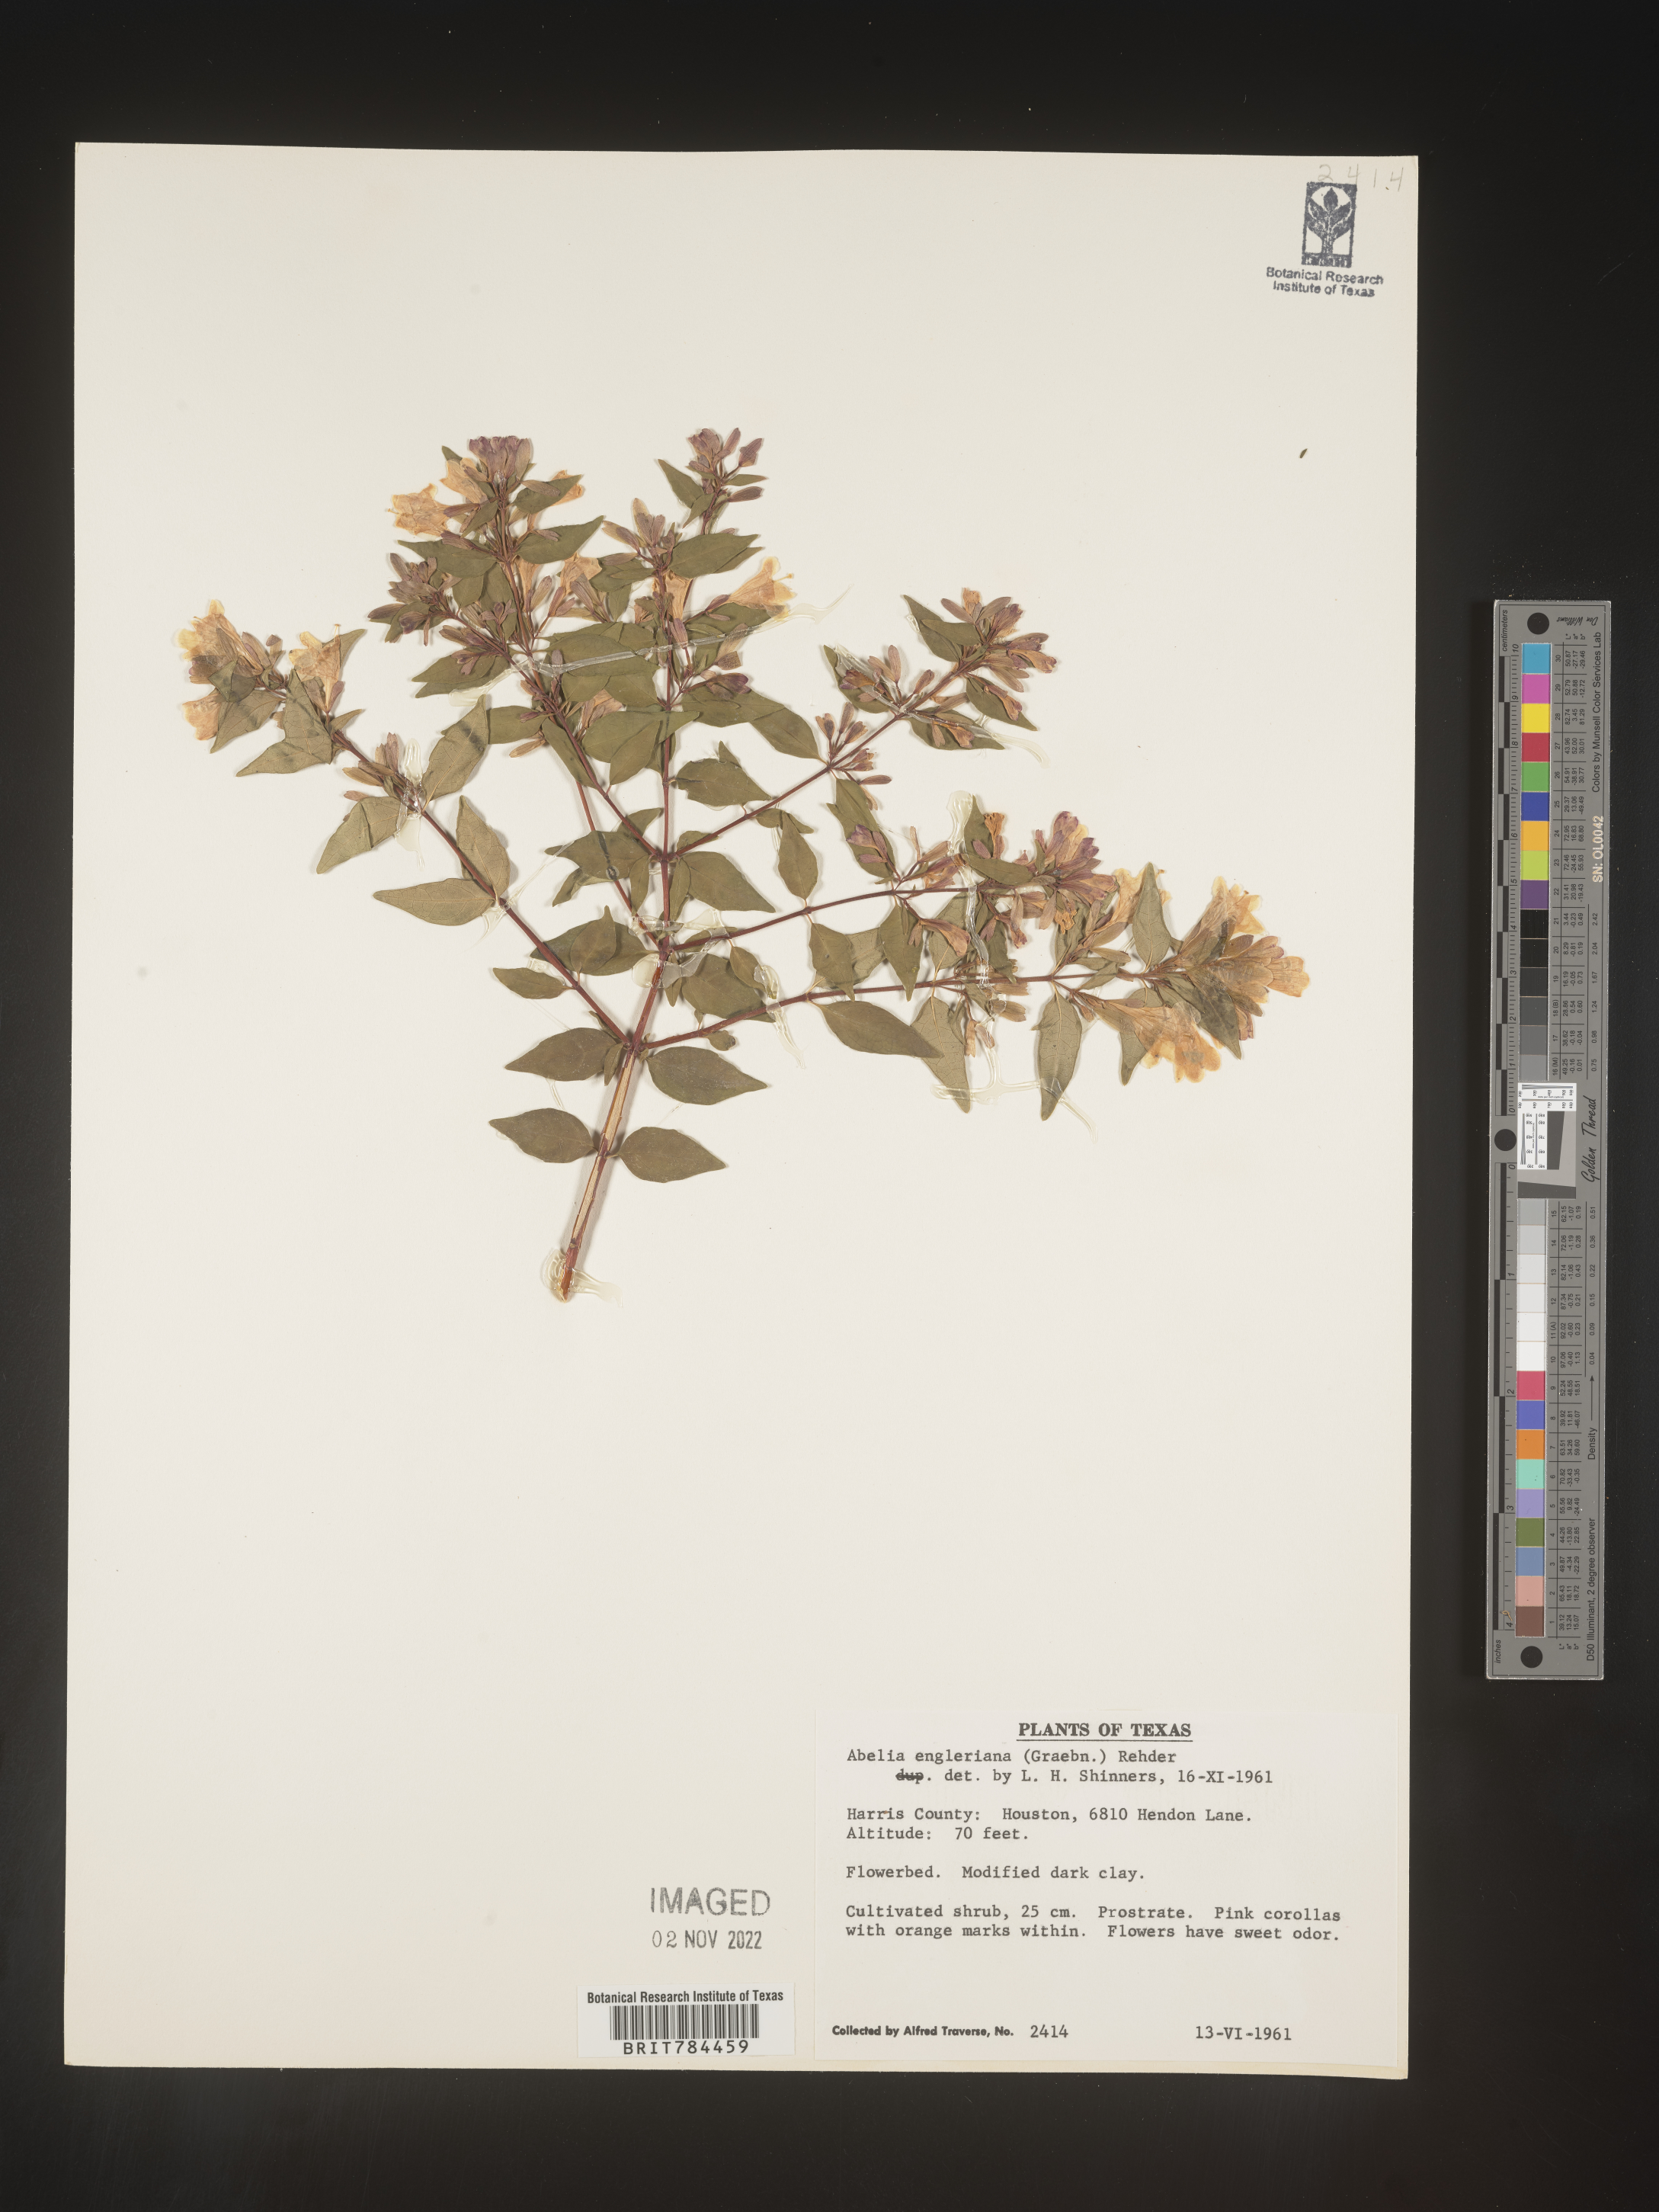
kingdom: Plantae
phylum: Tracheophyta
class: Magnoliopsida
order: Dipsacales
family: Caprifoliaceae
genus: Abelia
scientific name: Abelia
